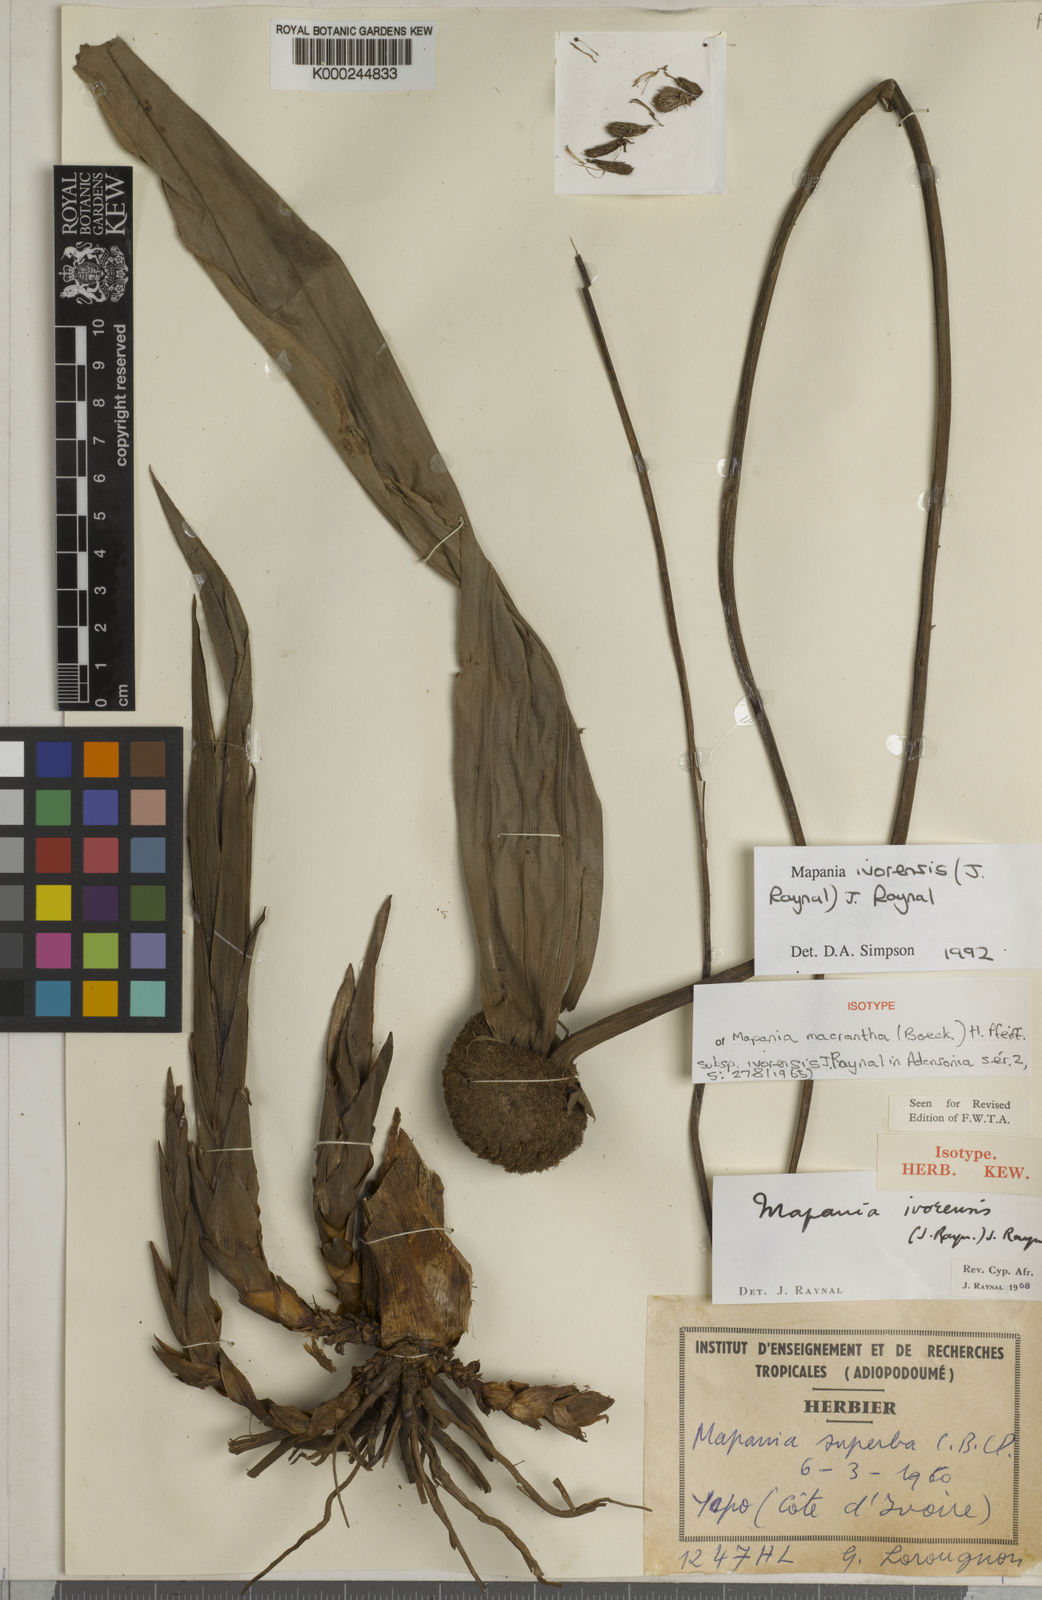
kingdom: Plantae
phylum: Tracheophyta
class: Liliopsida
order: Poales
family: Cyperaceae
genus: Mapania
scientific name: Mapania ivorensis
